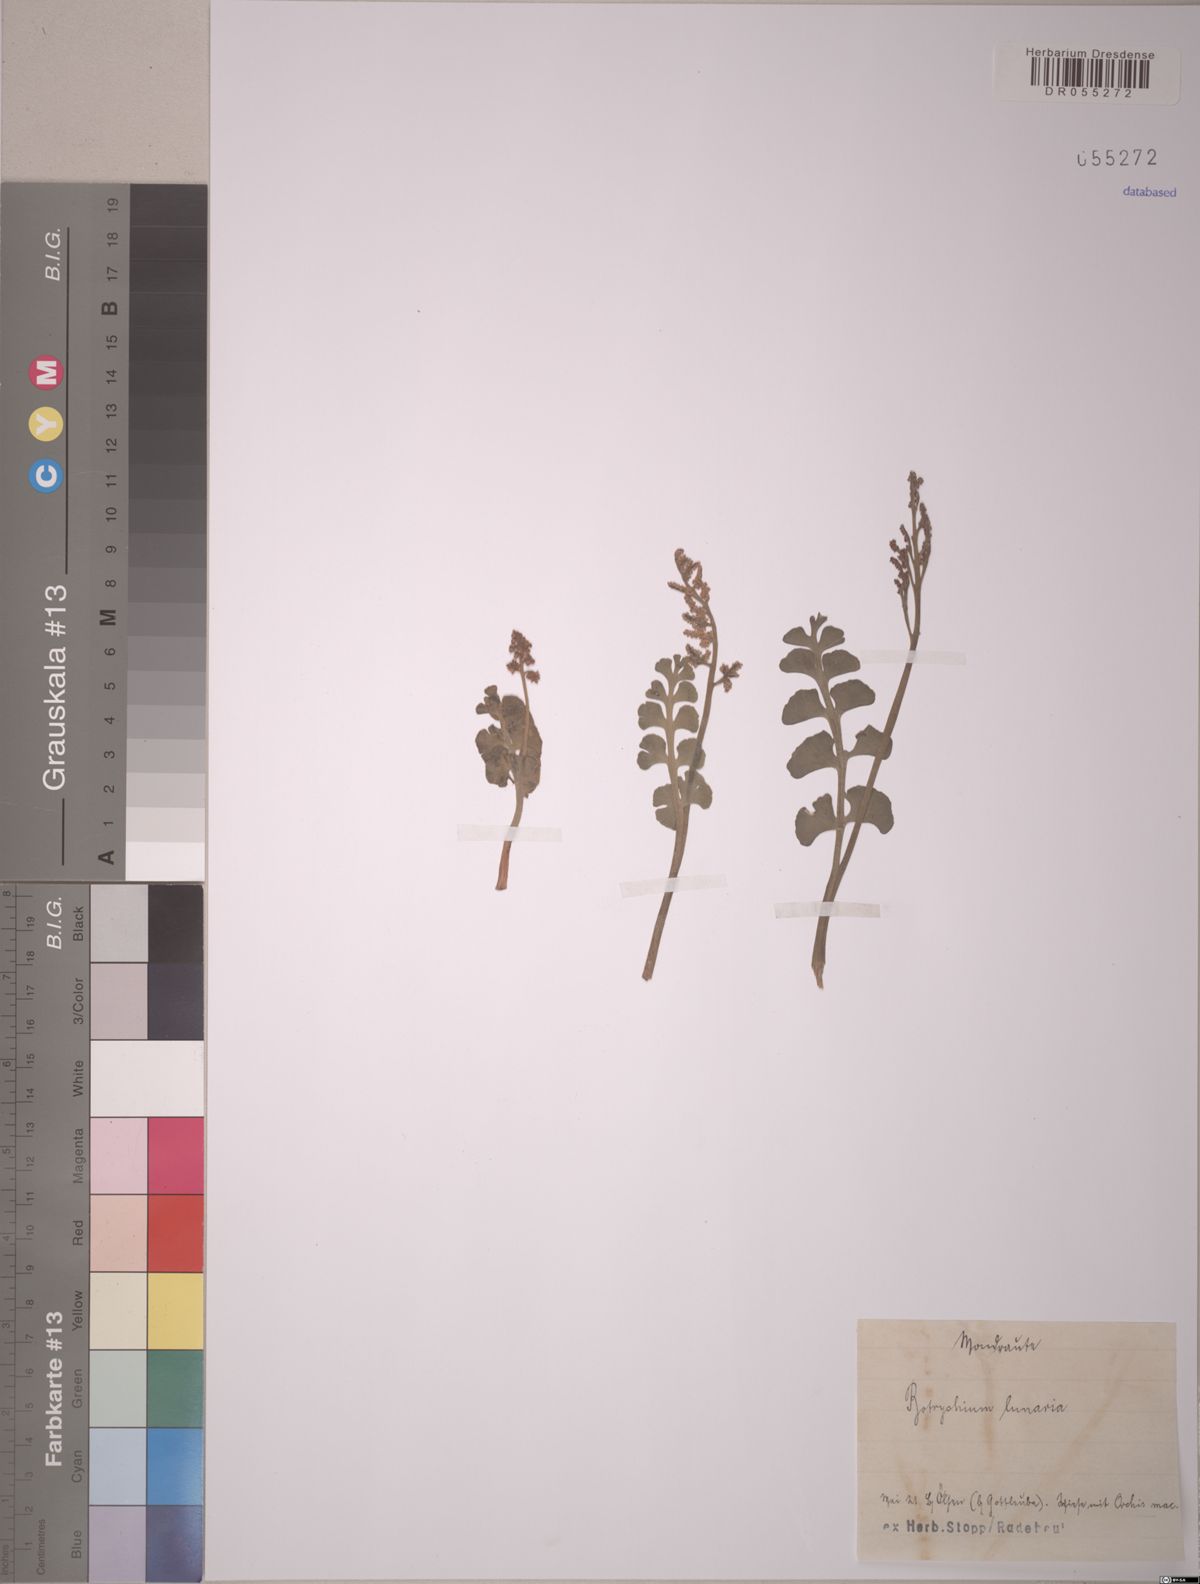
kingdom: Plantae
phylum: Tracheophyta
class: Polypodiopsida
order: Ophioglossales
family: Ophioglossaceae
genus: Botrychium
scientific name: Botrychium lunaria
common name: Moonwort
